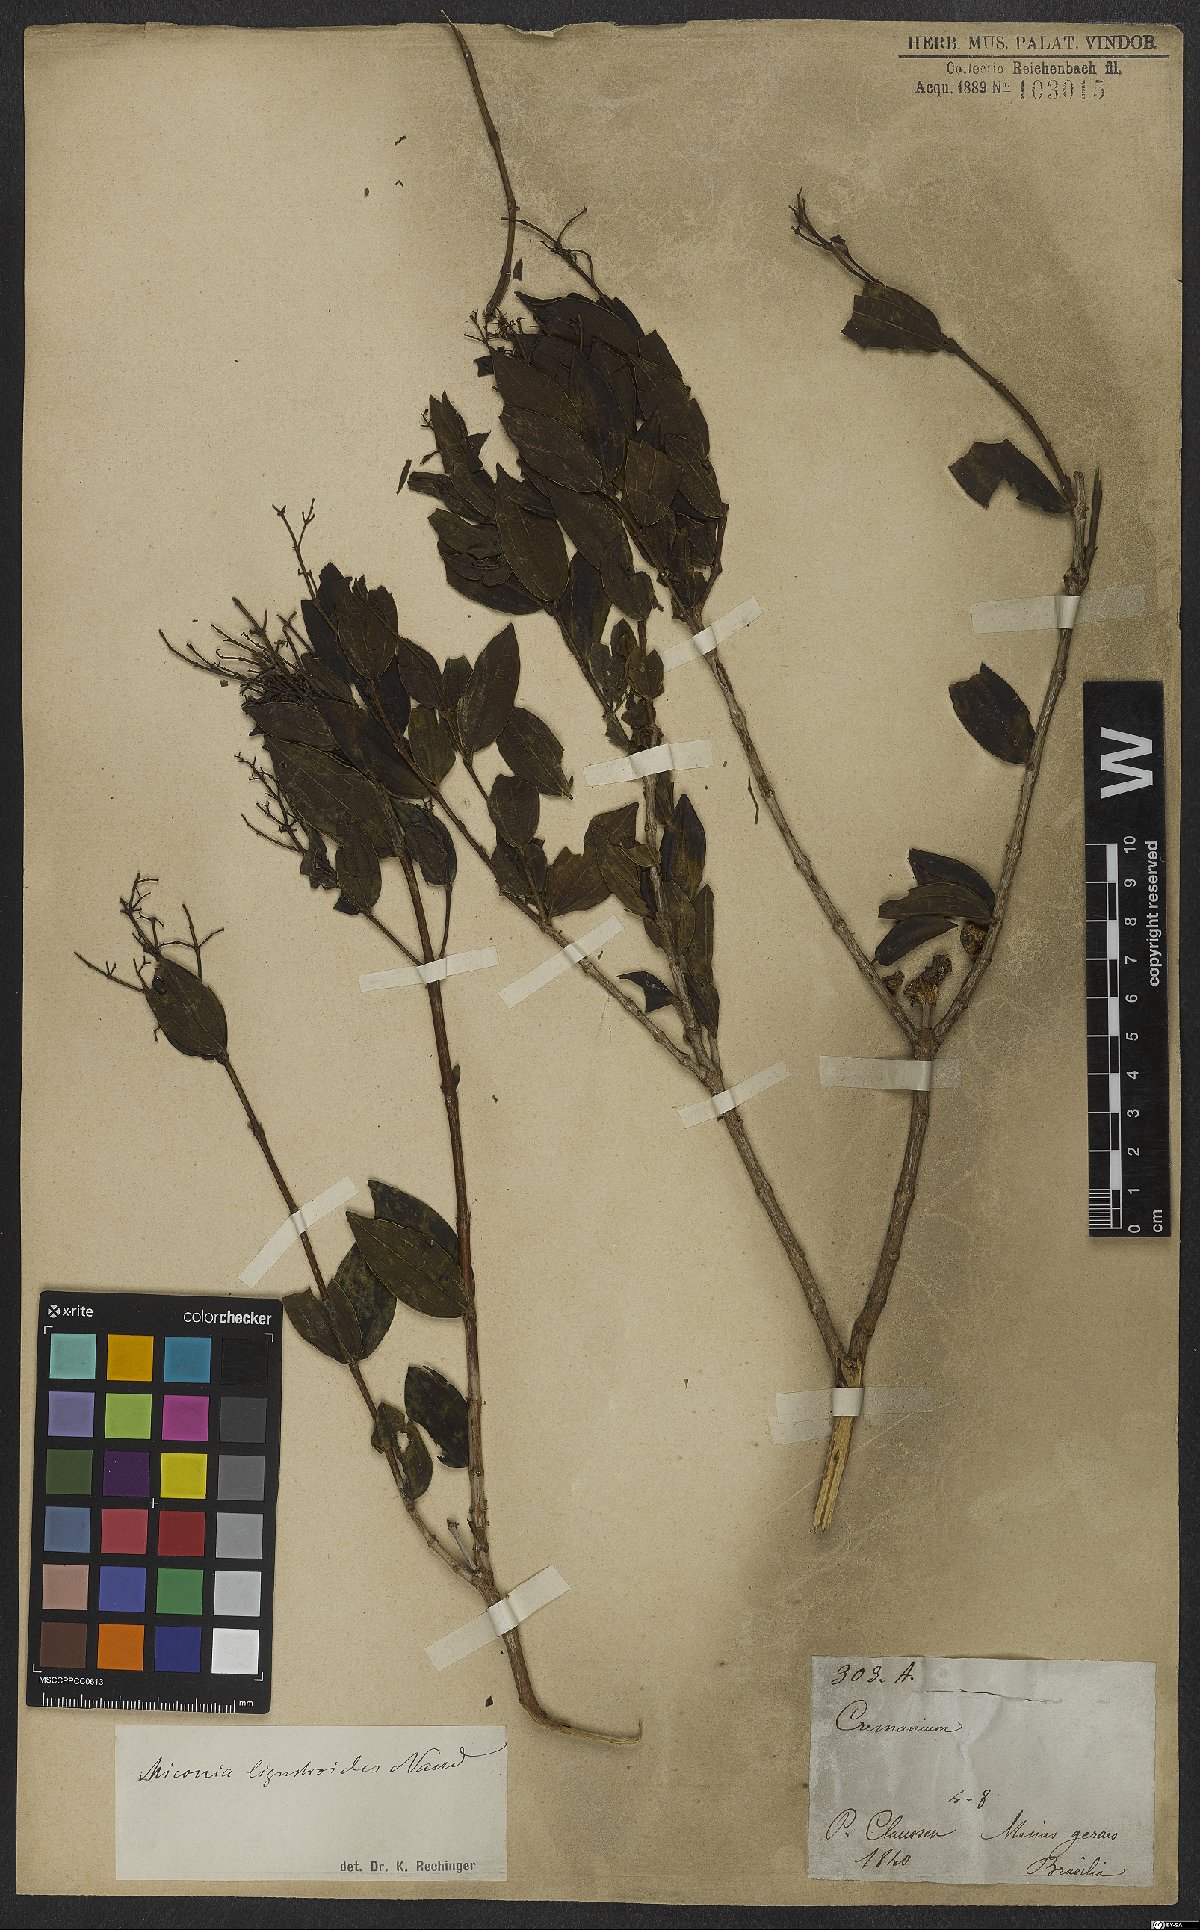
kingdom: Plantae
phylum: Tracheophyta
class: Magnoliopsida
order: Myrtales
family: Melastomataceae
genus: Miconia
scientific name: Miconia ligustroides
